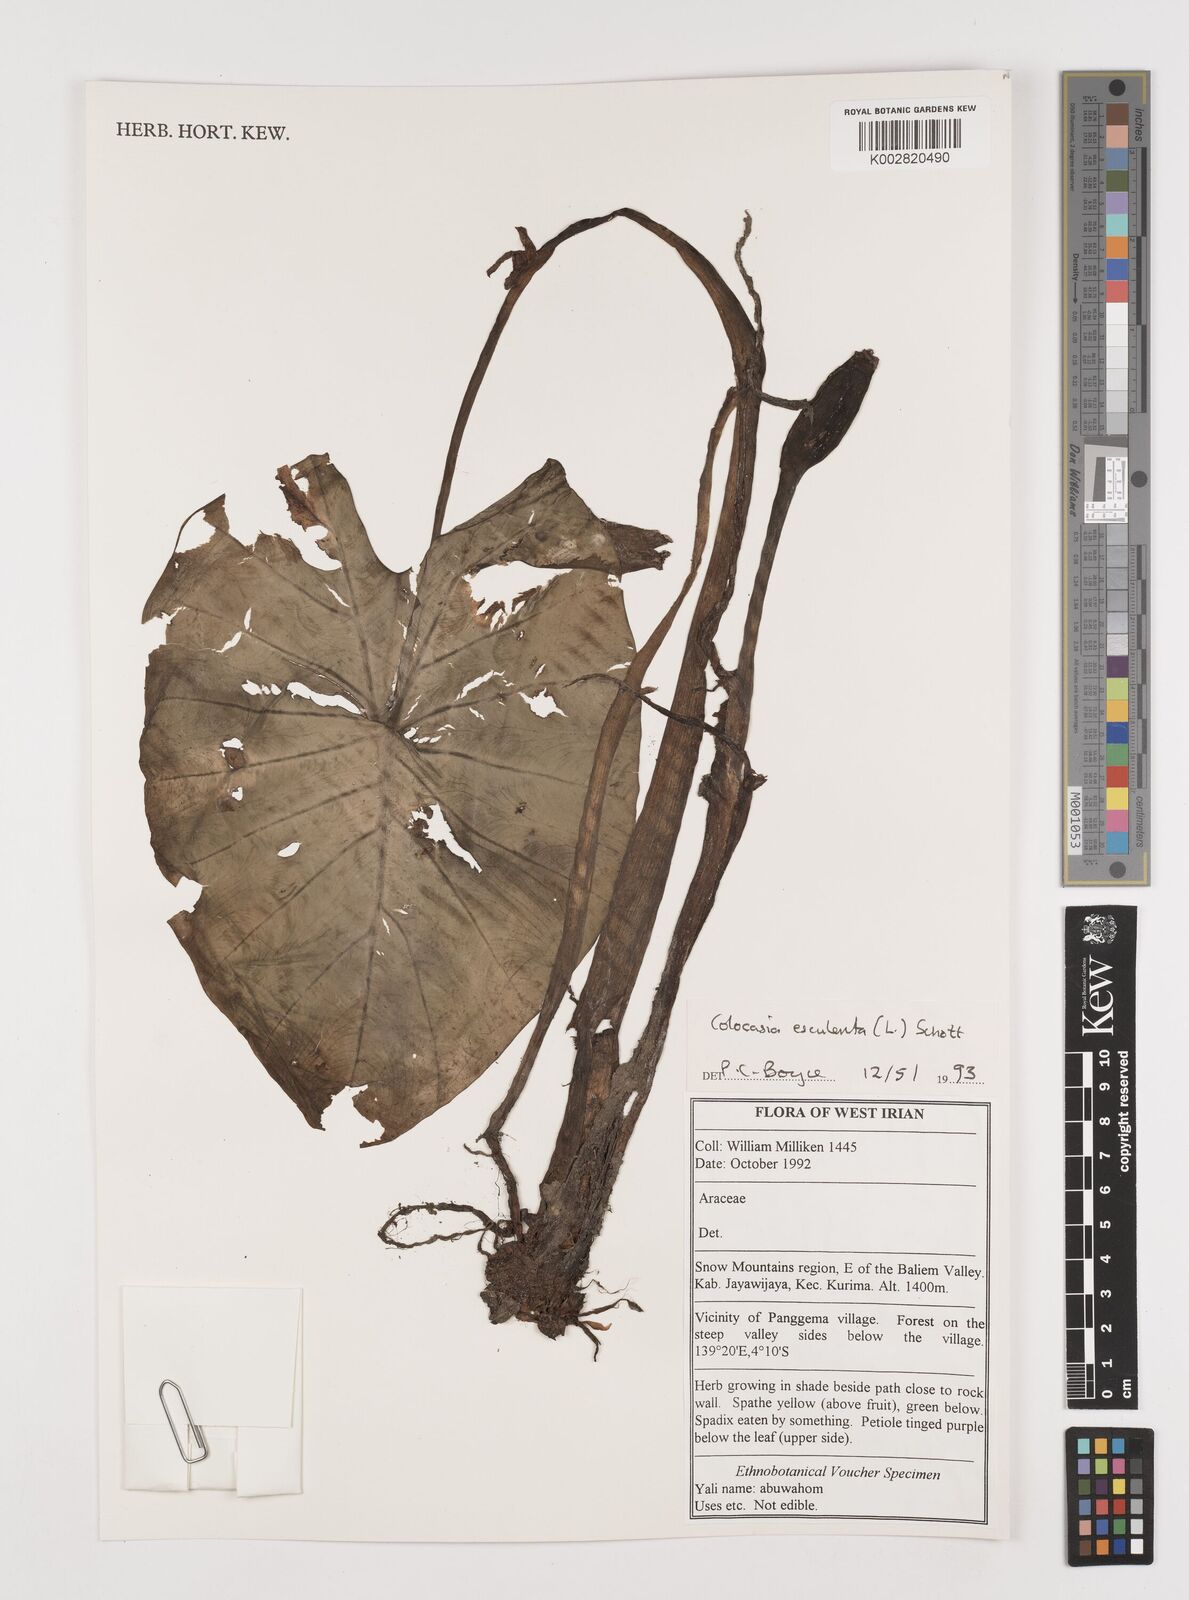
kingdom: Plantae
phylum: Tracheophyta
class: Liliopsida
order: Alismatales
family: Araceae
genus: Colocasia
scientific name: Colocasia esculenta
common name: Taro
